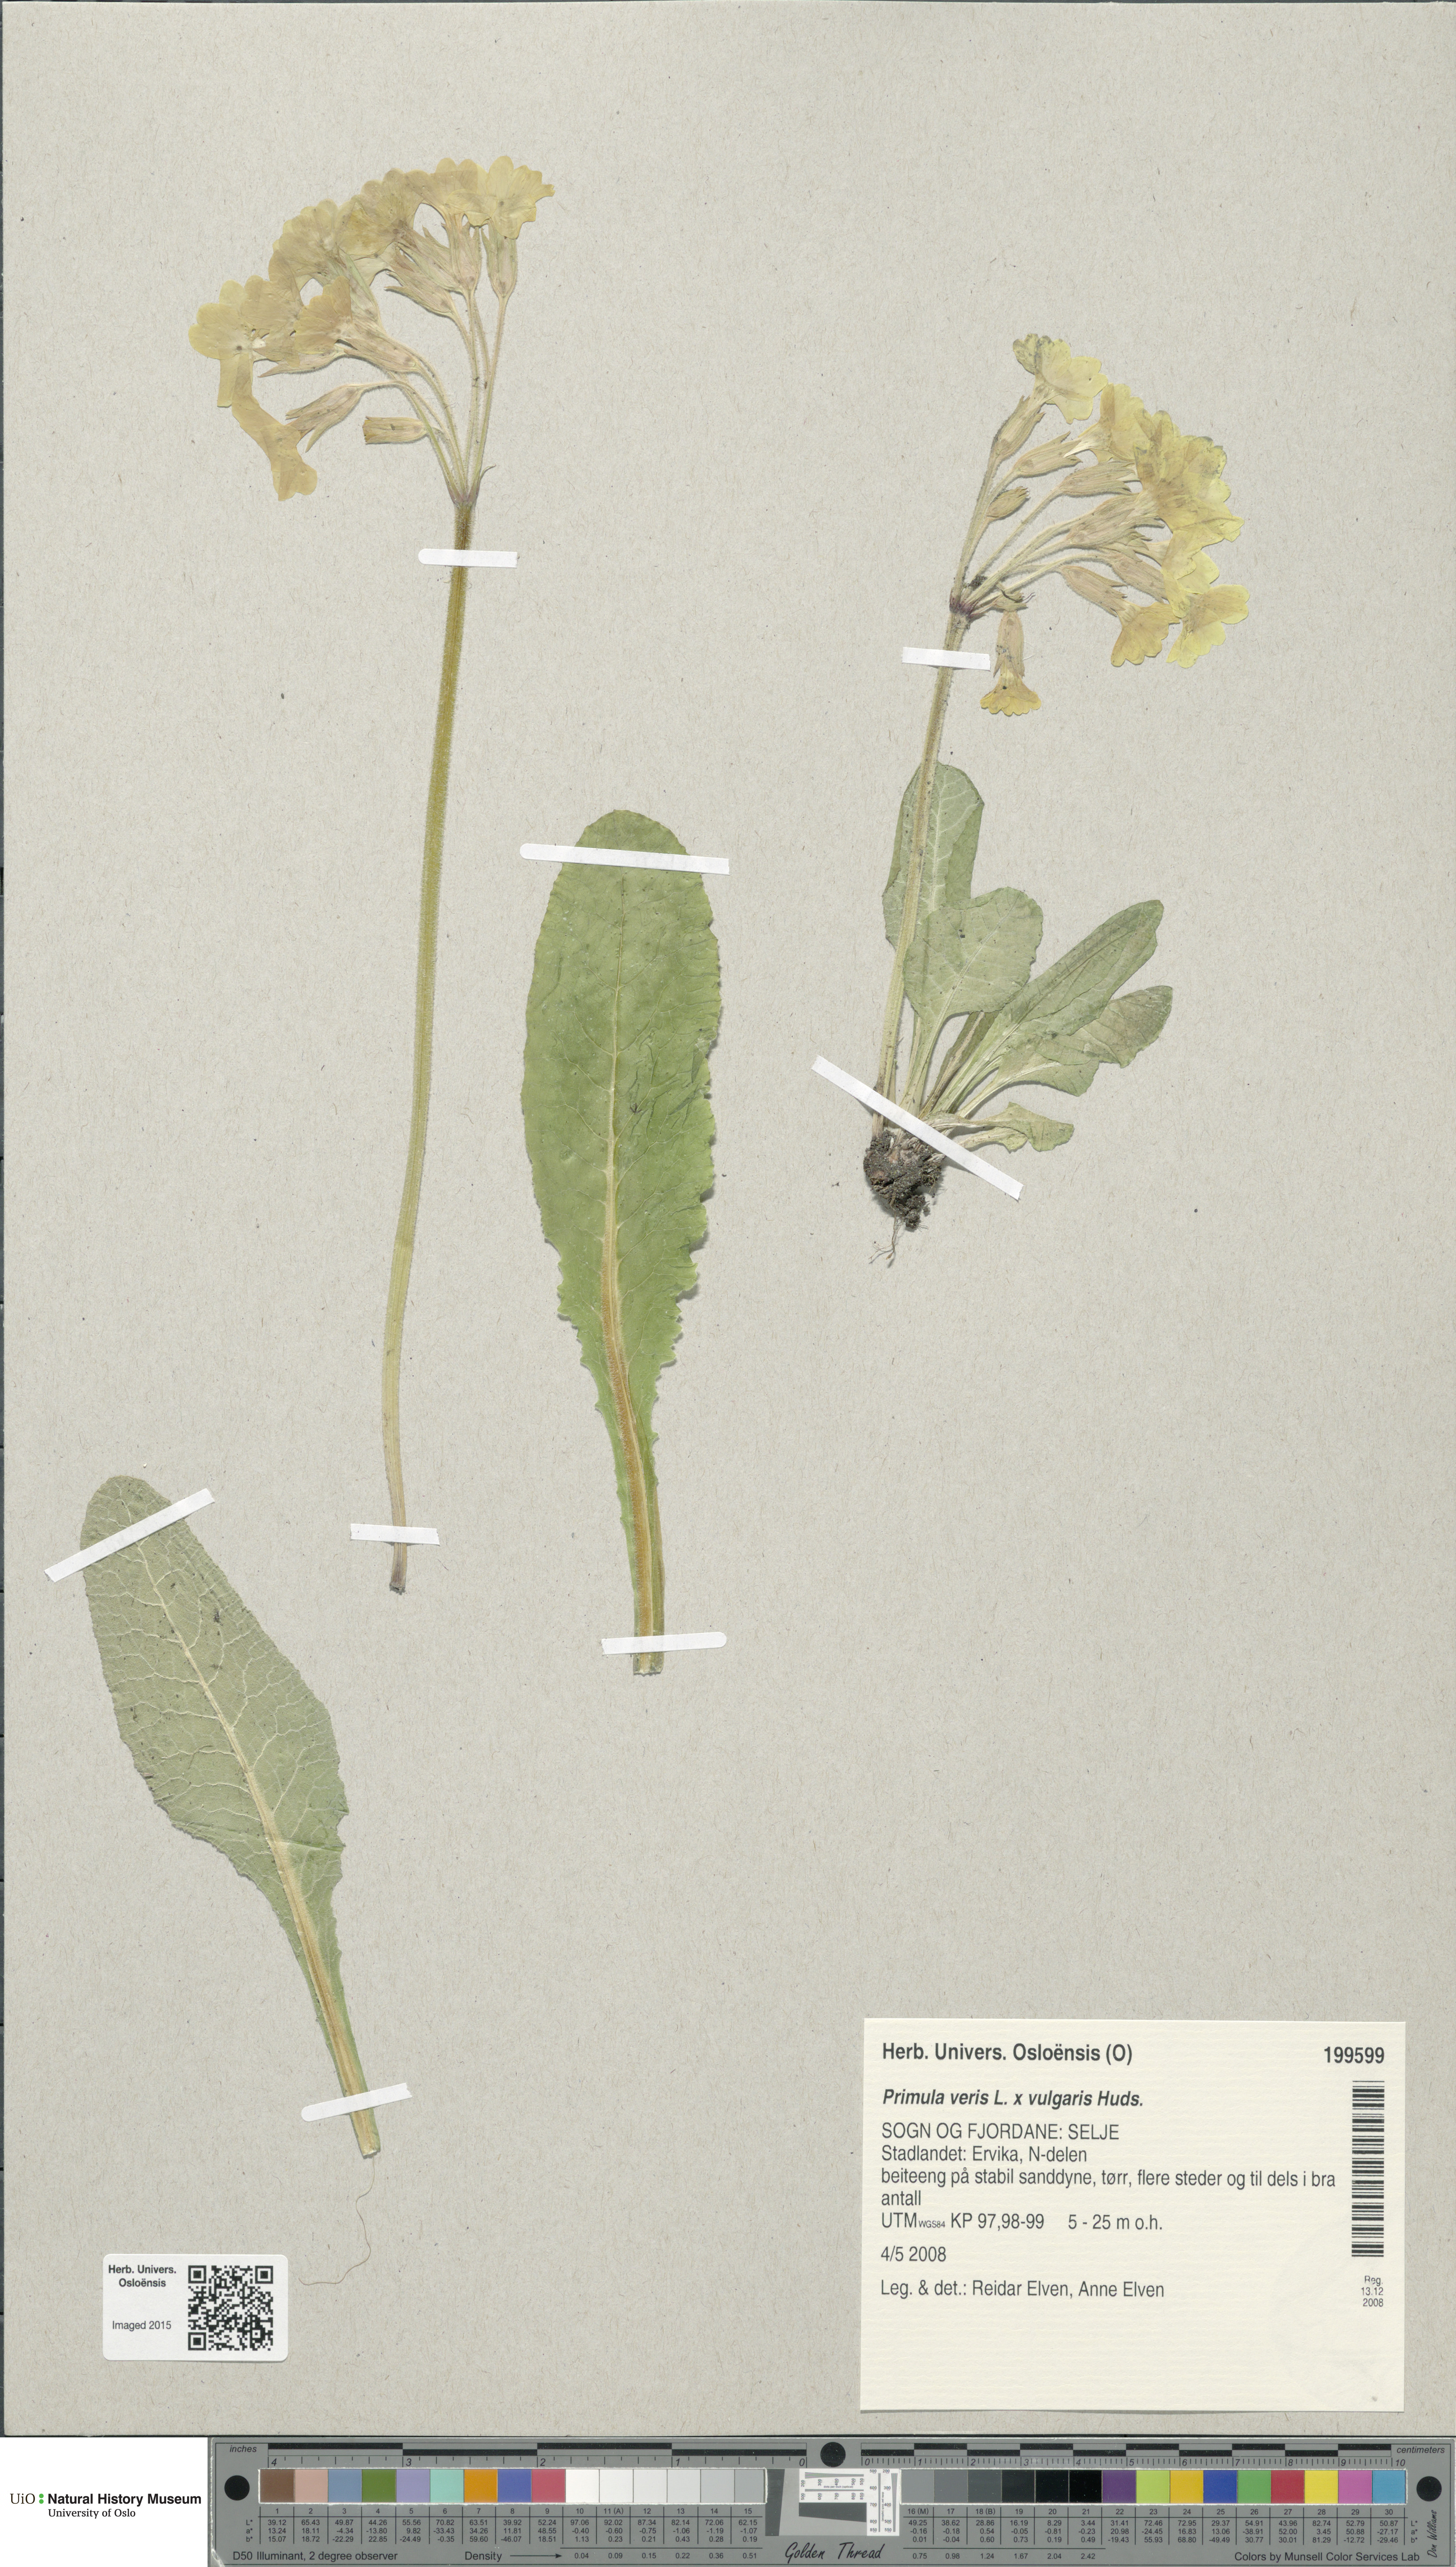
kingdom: Plantae
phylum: Tracheophyta
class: Magnoliopsida
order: Ericales
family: Primulaceae
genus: Primula
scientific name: Primula
